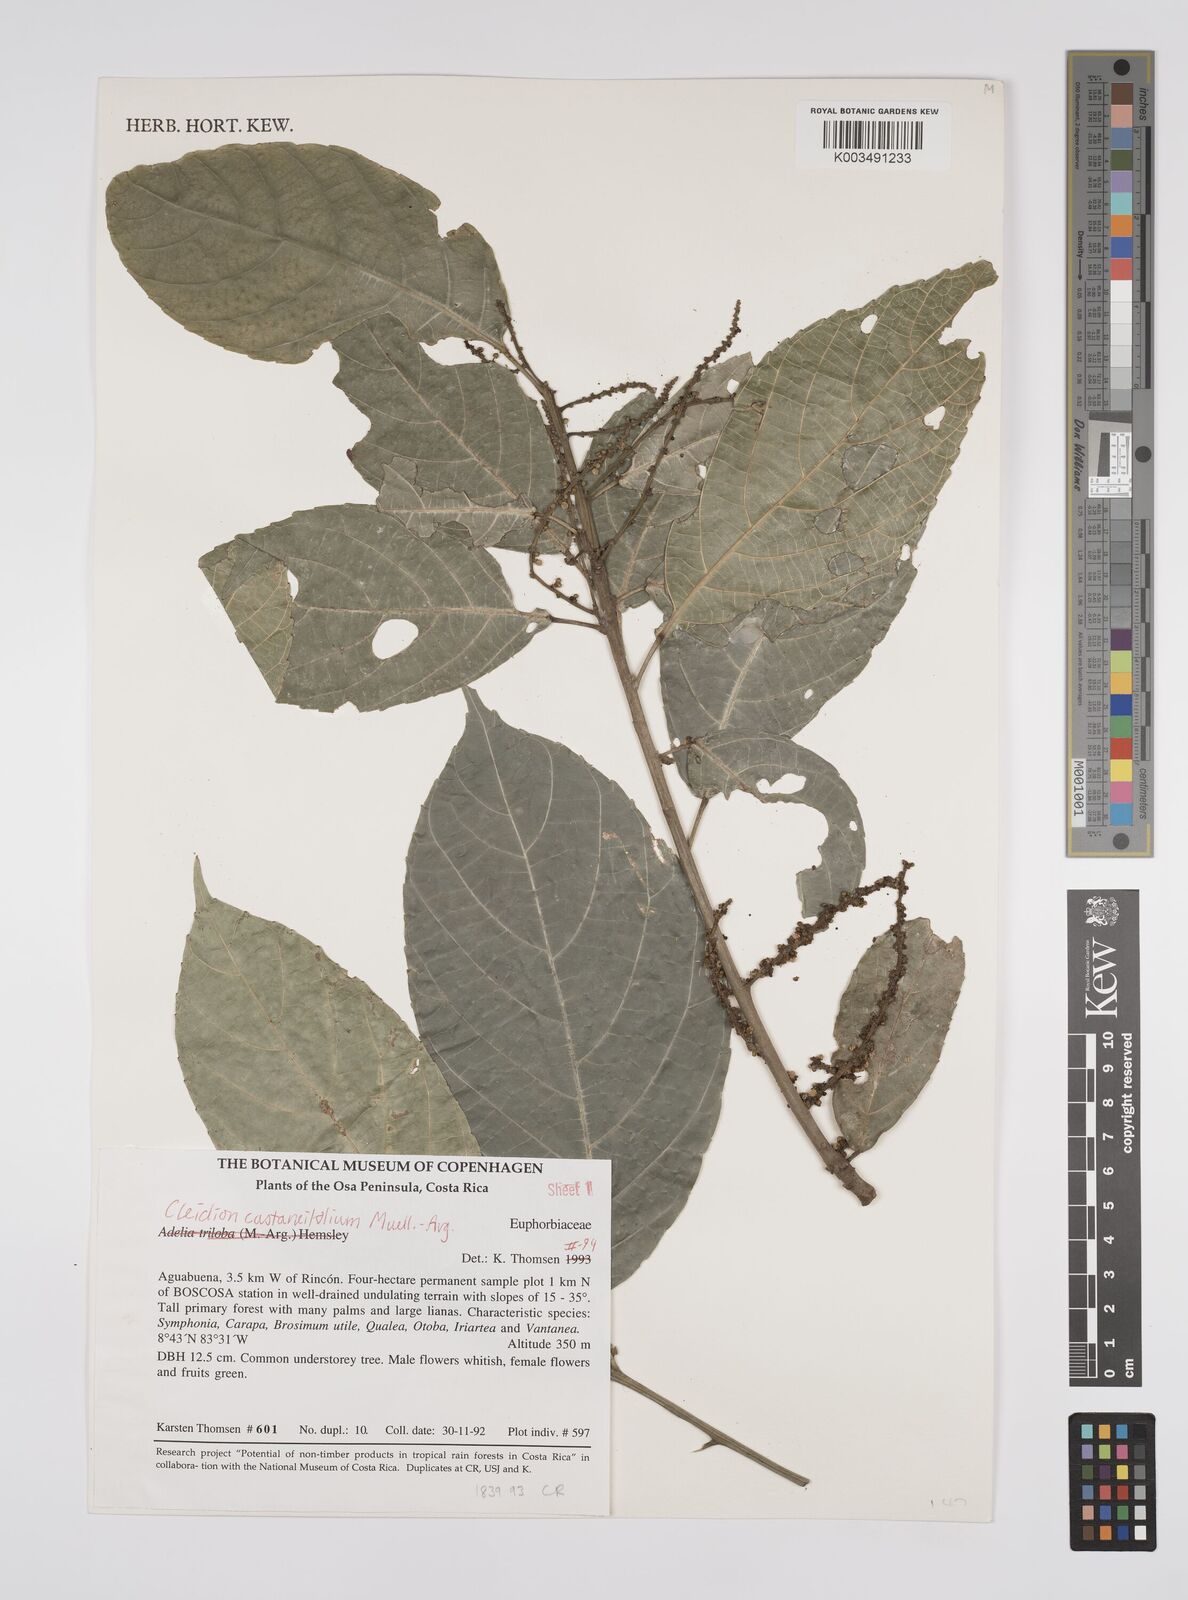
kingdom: Plantae
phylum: Tracheophyta
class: Magnoliopsida
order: Malpighiales
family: Euphorbiaceae
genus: Cleidion
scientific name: Cleidion castaneifolium
